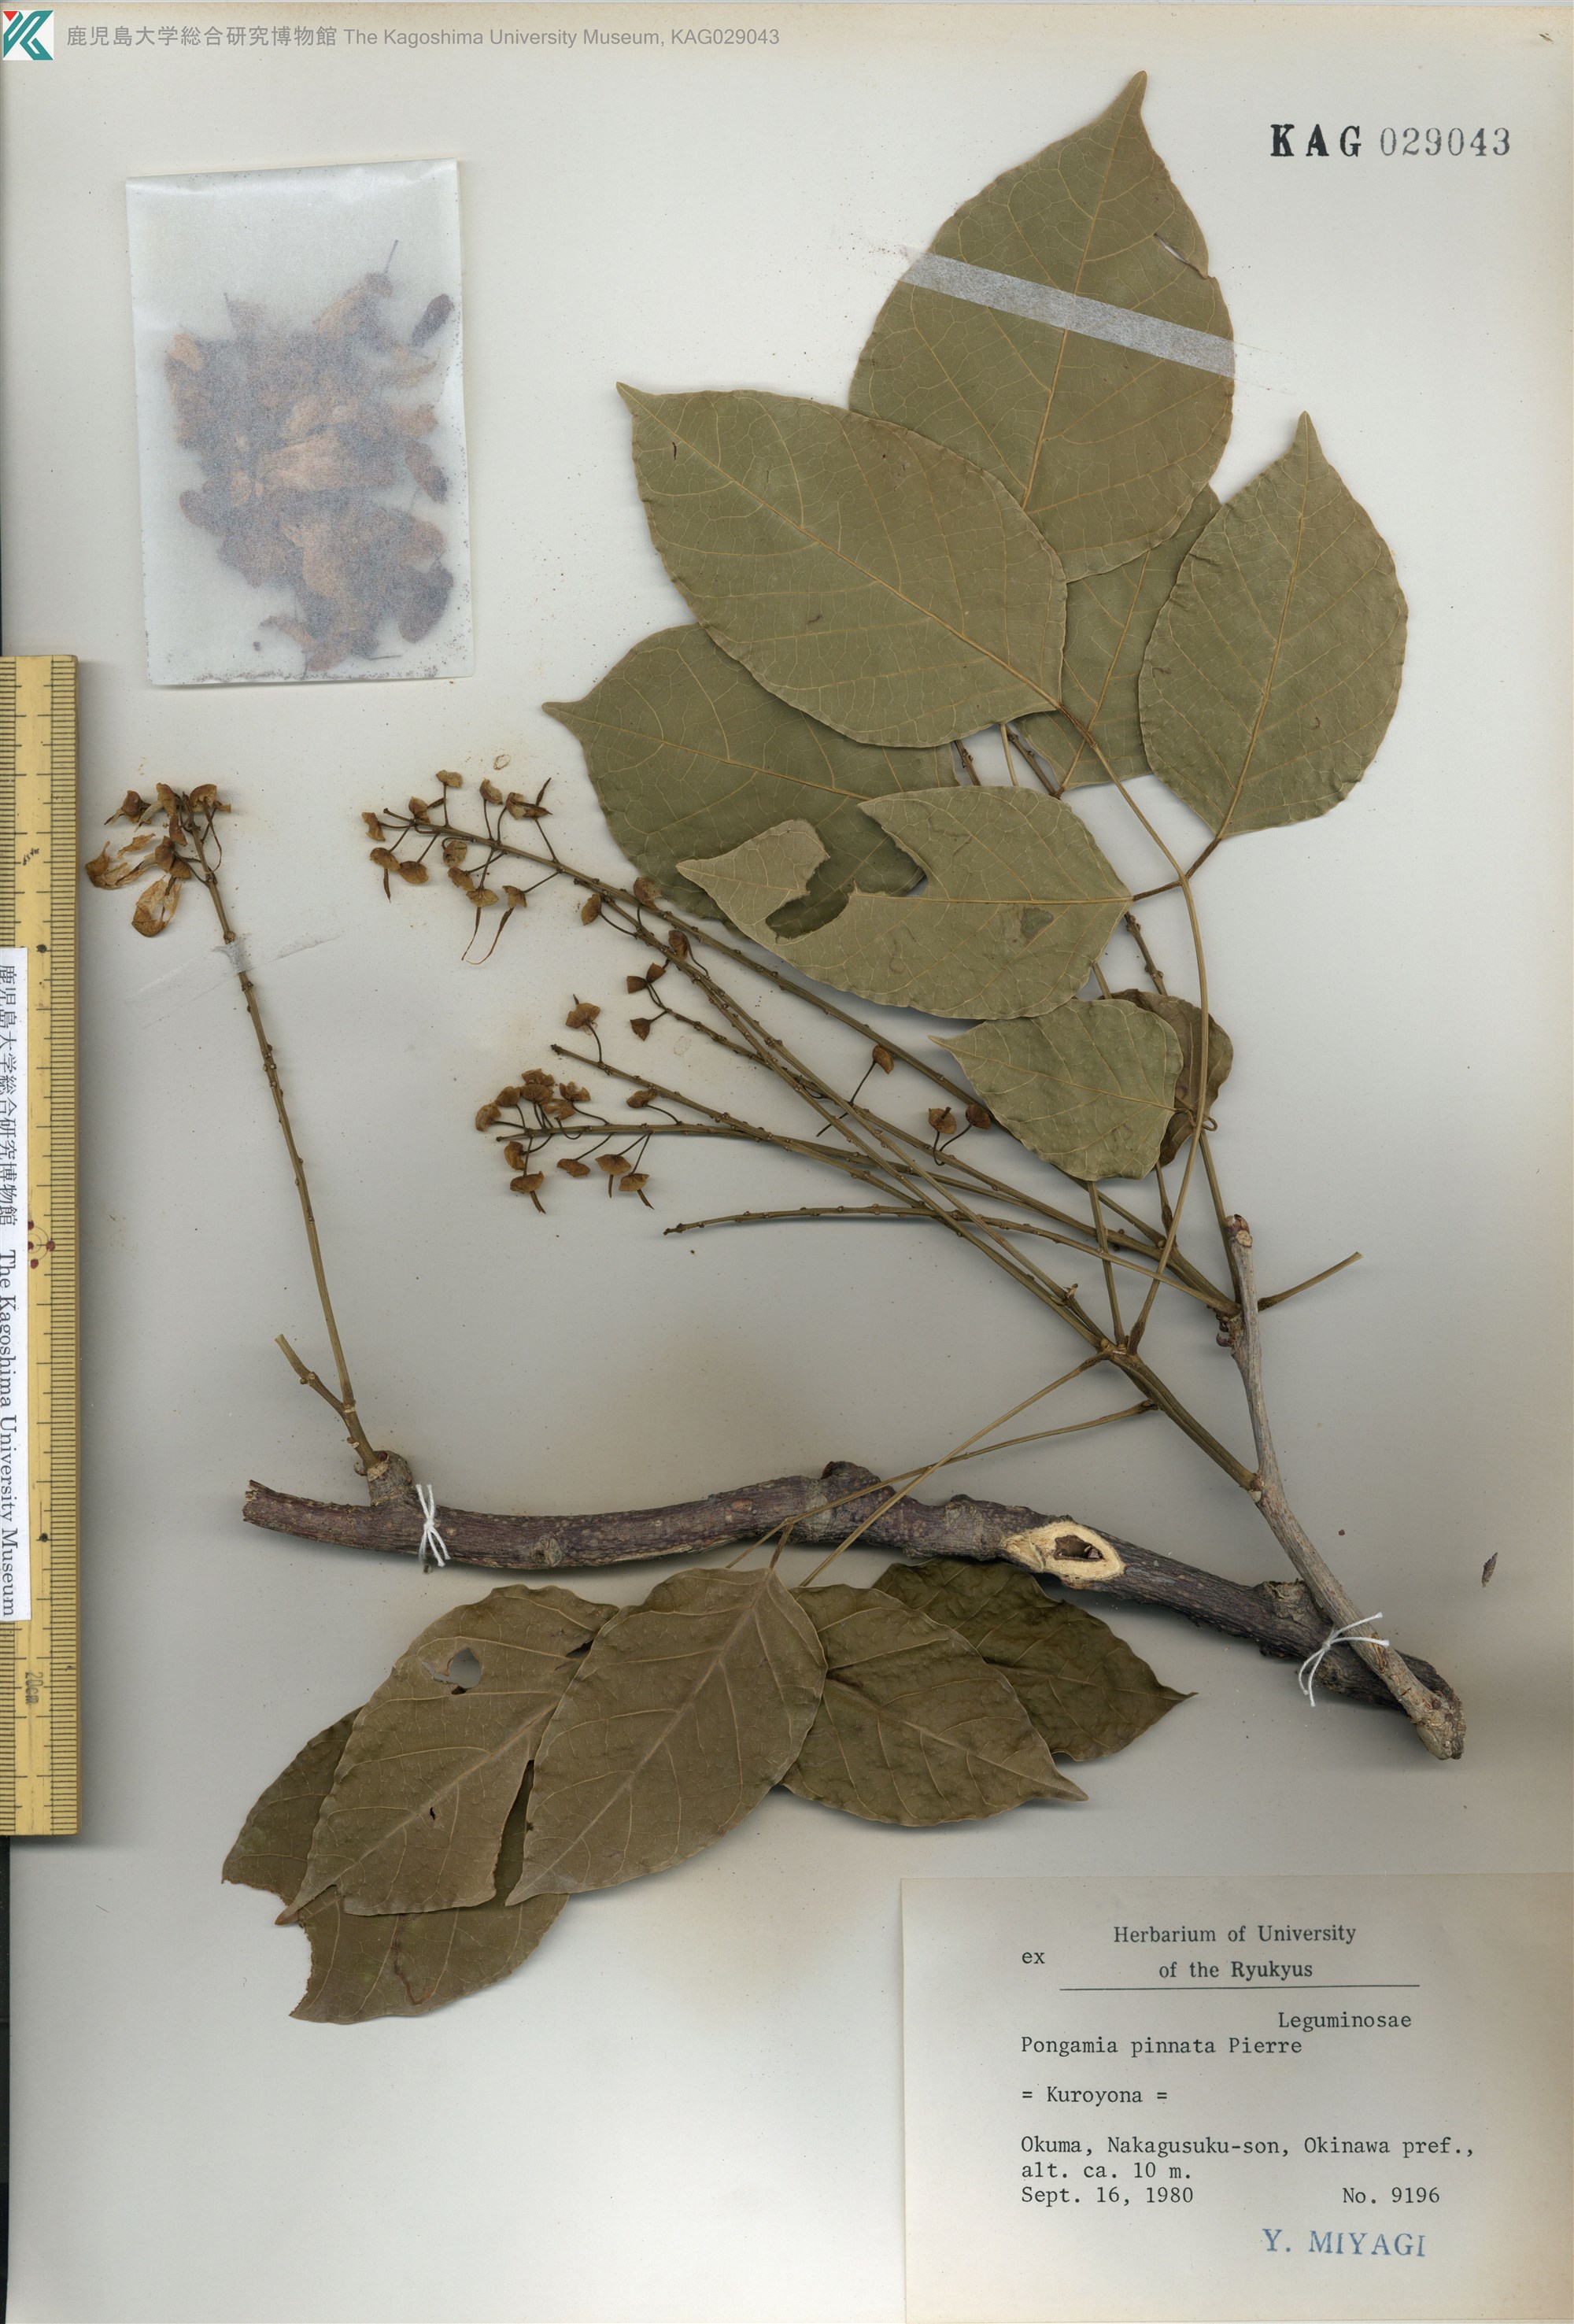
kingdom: Plantae
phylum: Tracheophyta
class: Magnoliopsida
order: Fabales
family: Fabaceae
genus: Pongamia
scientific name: Pongamia pinnata
